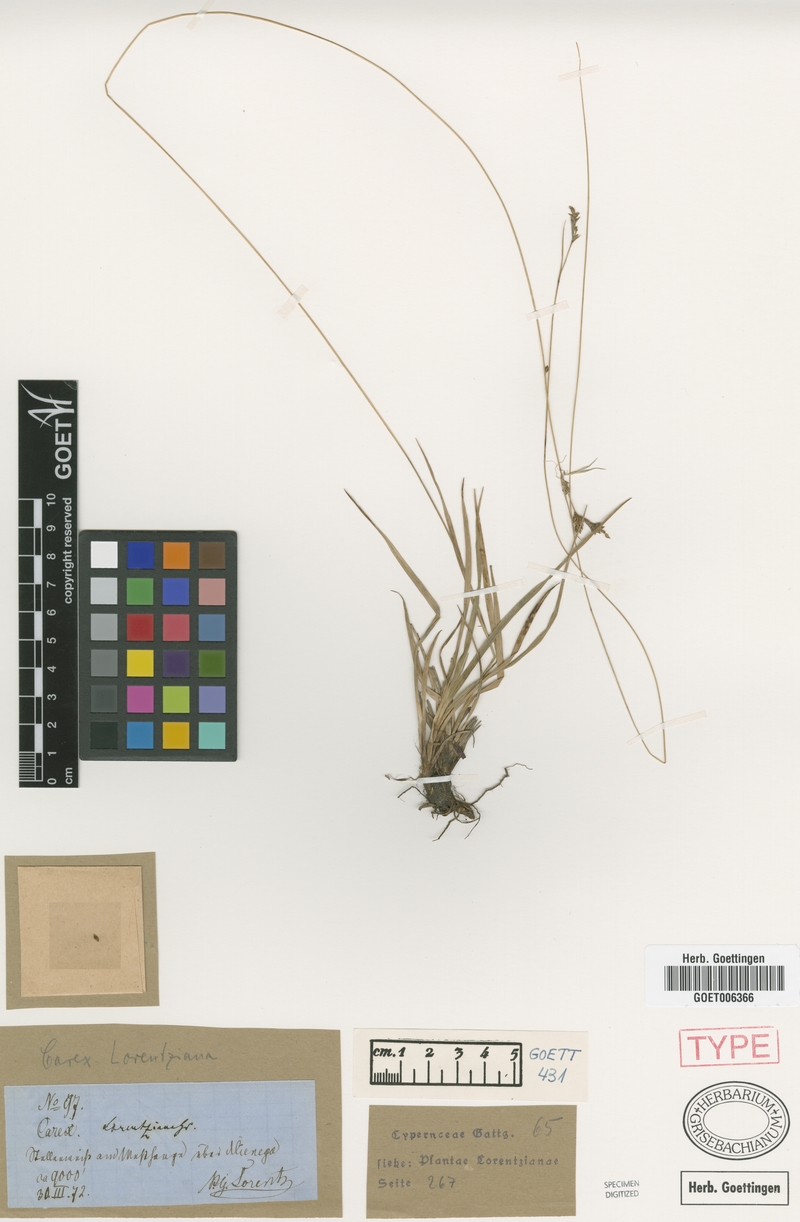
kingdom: Plantae
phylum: Tracheophyta
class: Liliopsida
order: Poales
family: Cyperaceae
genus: Carex
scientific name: Carex boliviensis
